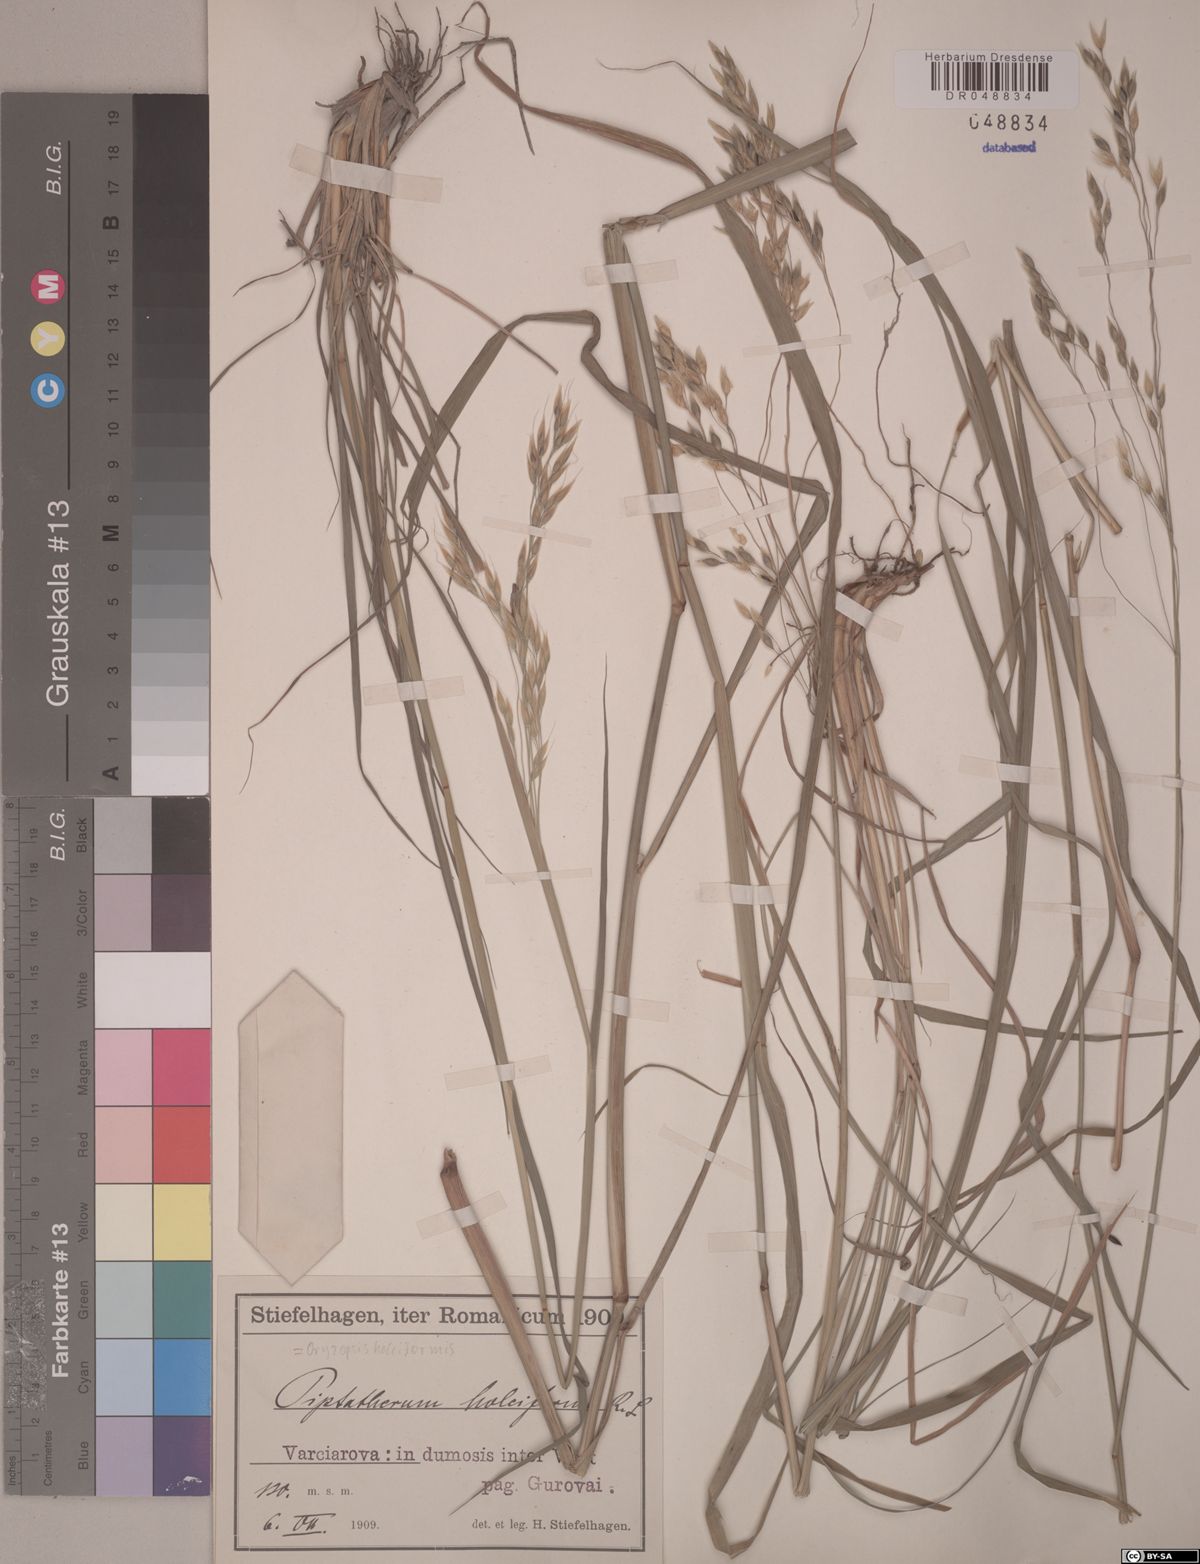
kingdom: Plantae
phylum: Tracheophyta
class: Liliopsida
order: Poales
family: Poaceae
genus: Piptatherum
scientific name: Piptatherum holciforme
